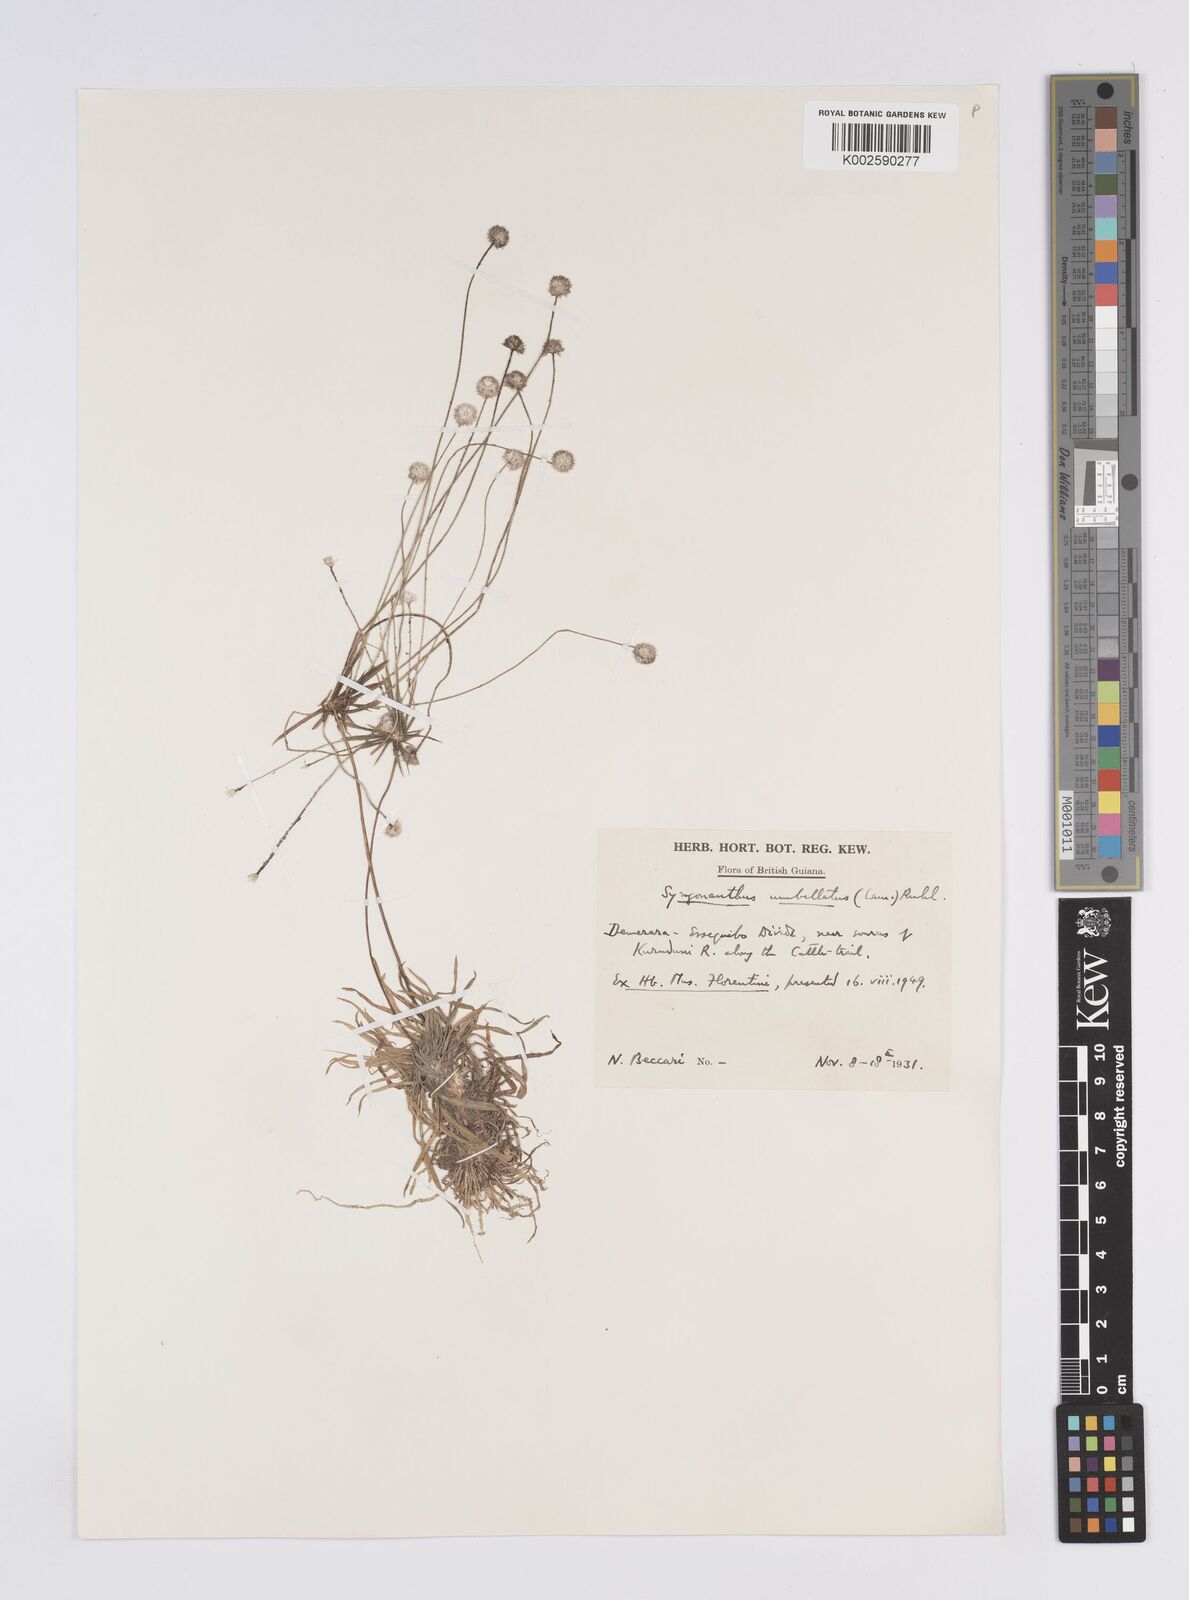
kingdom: Plantae
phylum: Tracheophyta
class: Liliopsida
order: Poales
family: Eriocaulaceae
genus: Syngonanthus
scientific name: Syngonanthus umbellatus
